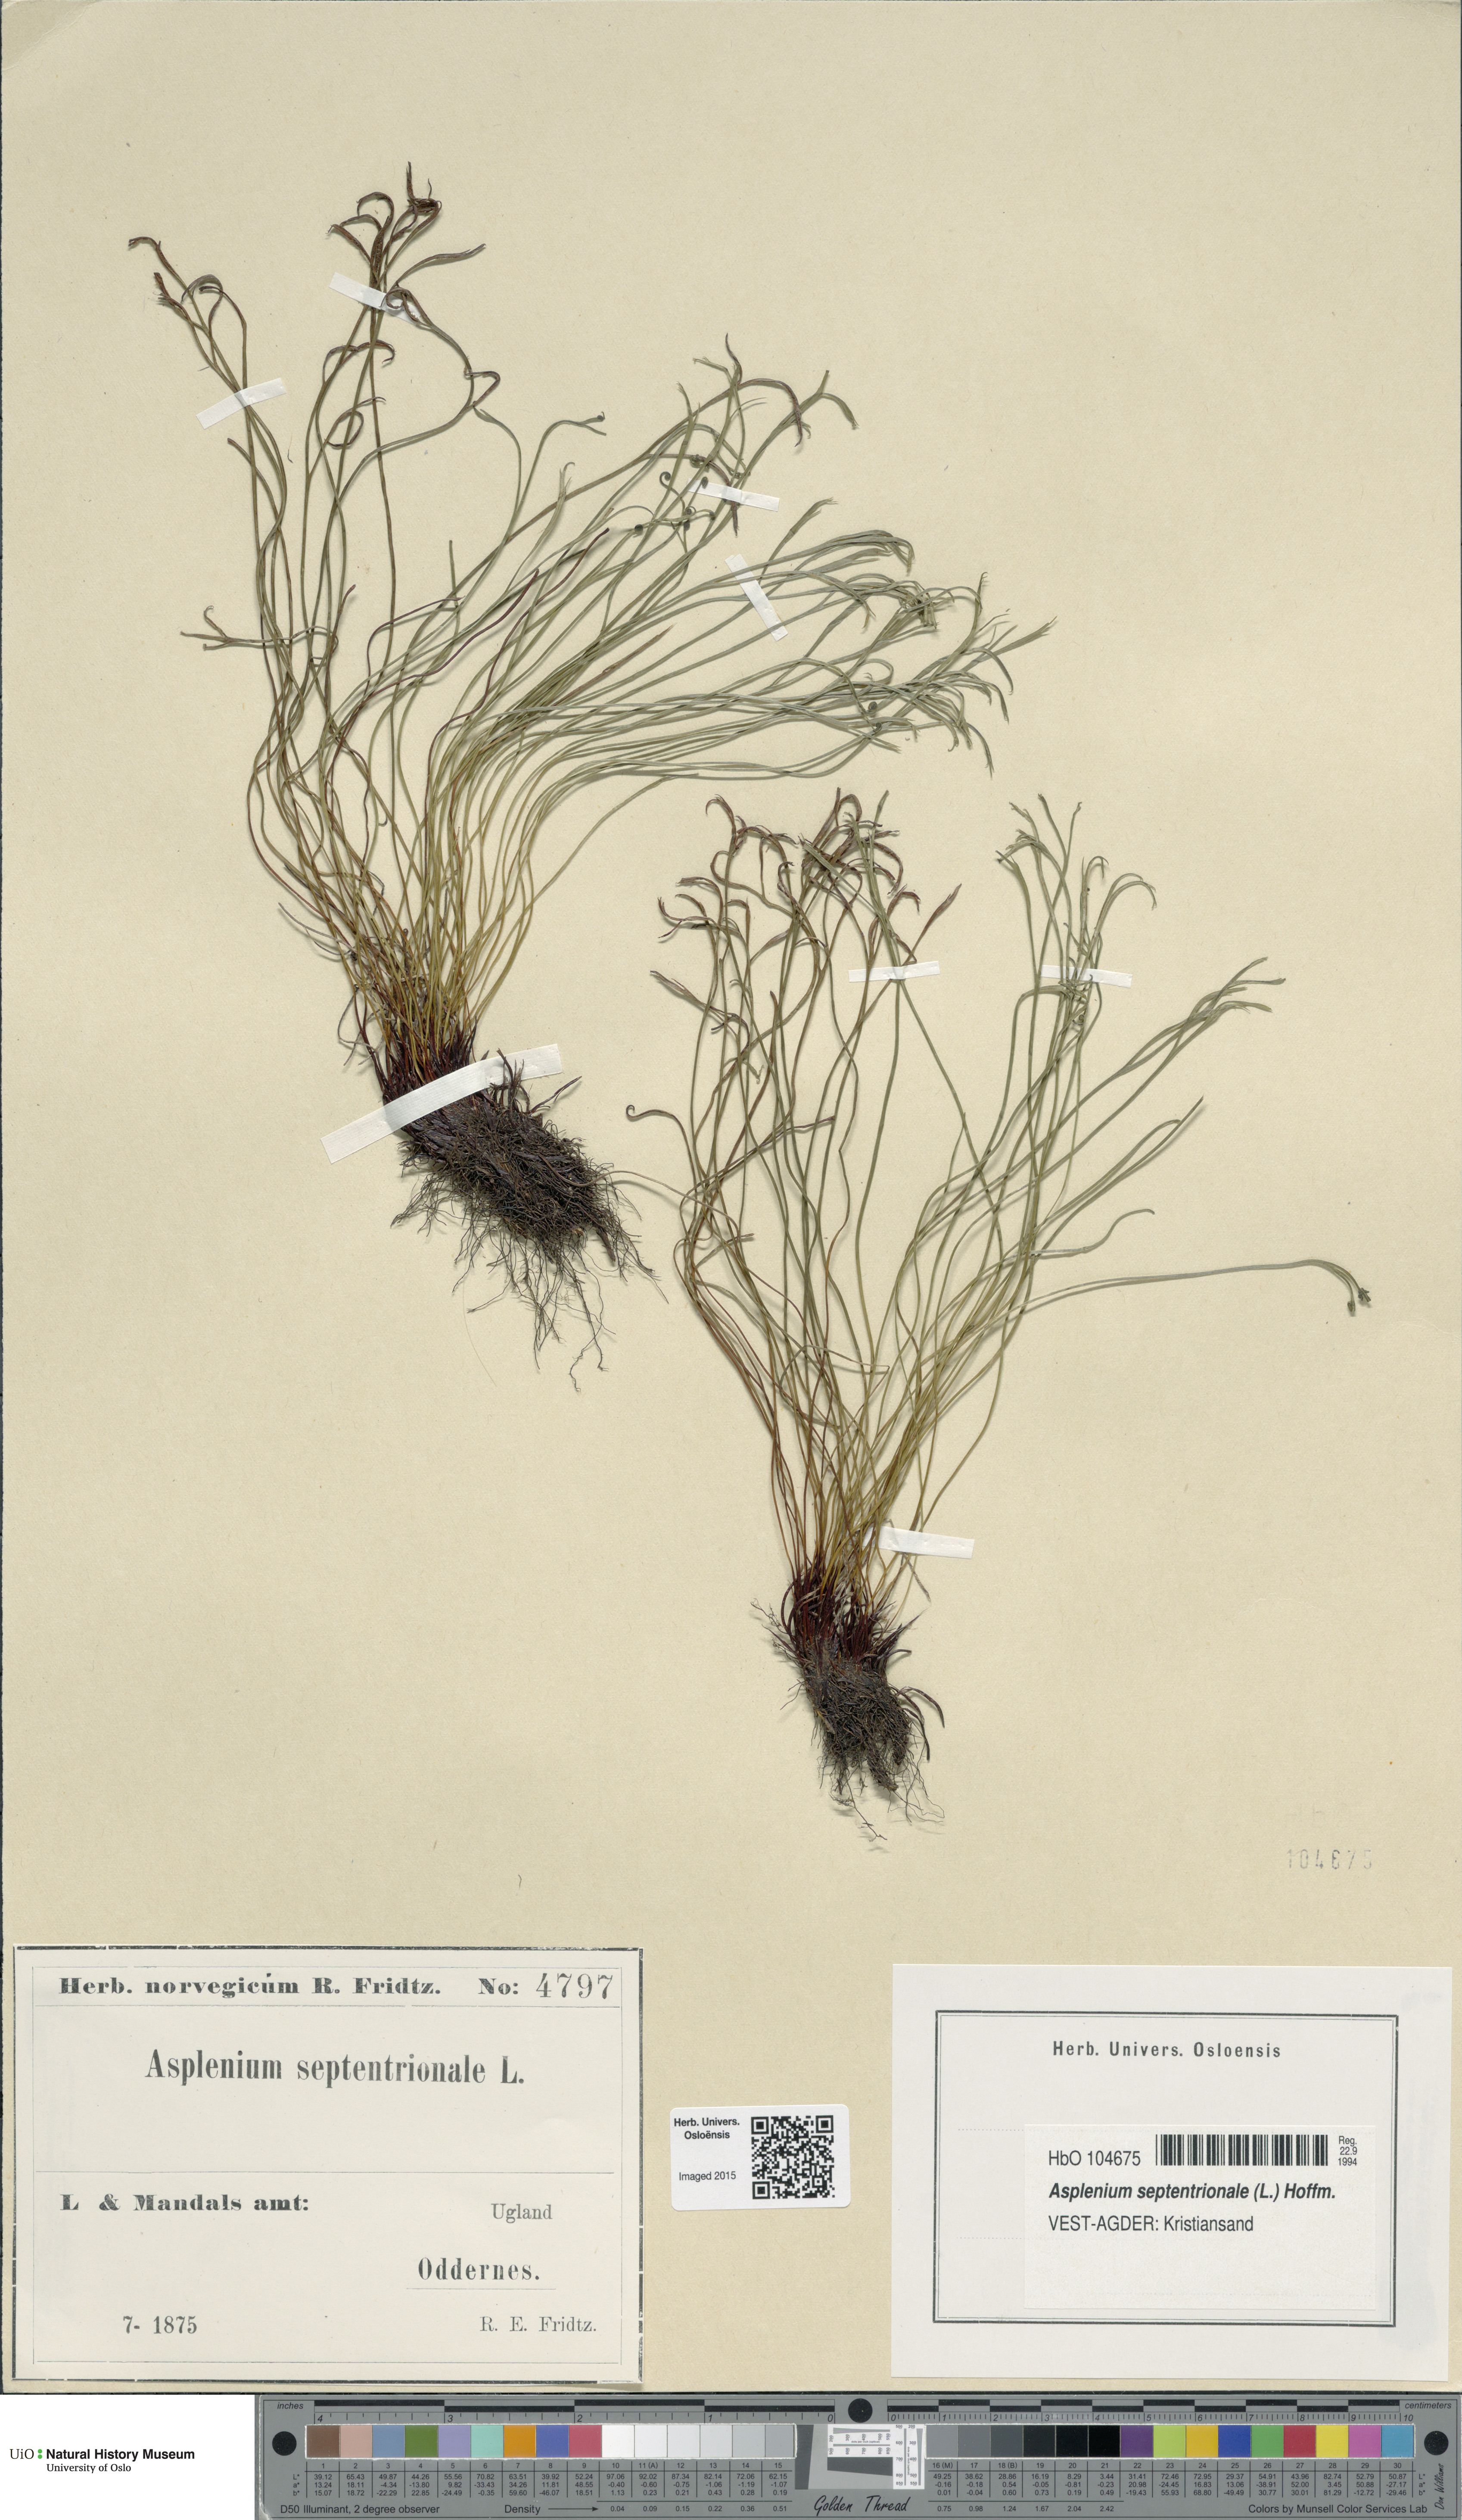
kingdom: Plantae
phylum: Tracheophyta
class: Polypodiopsida
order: Polypodiales
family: Aspleniaceae
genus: Asplenium
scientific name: Asplenium septentrionale
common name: Forked spleenwort
